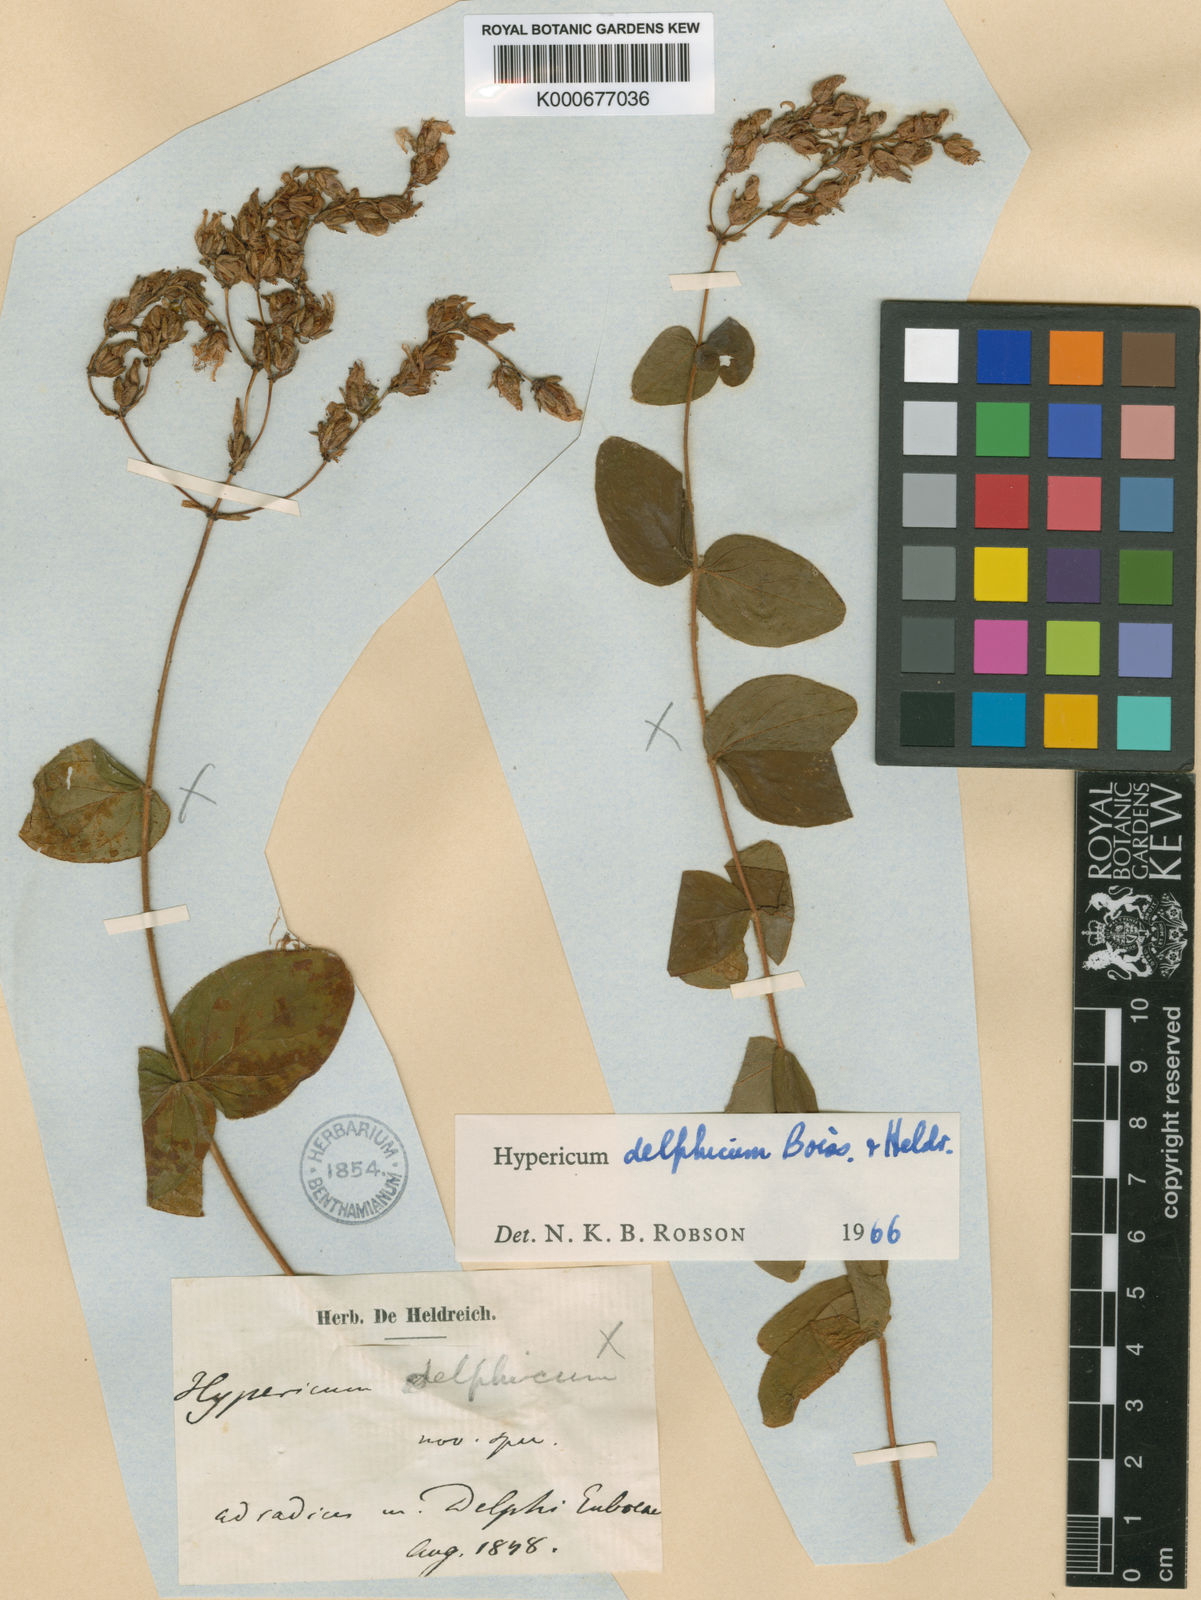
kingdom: Plantae
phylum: Tracheophyta
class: Magnoliopsida
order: Malpighiales
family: Hypericaceae
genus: Hypericum
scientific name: Hypericum delphicum
